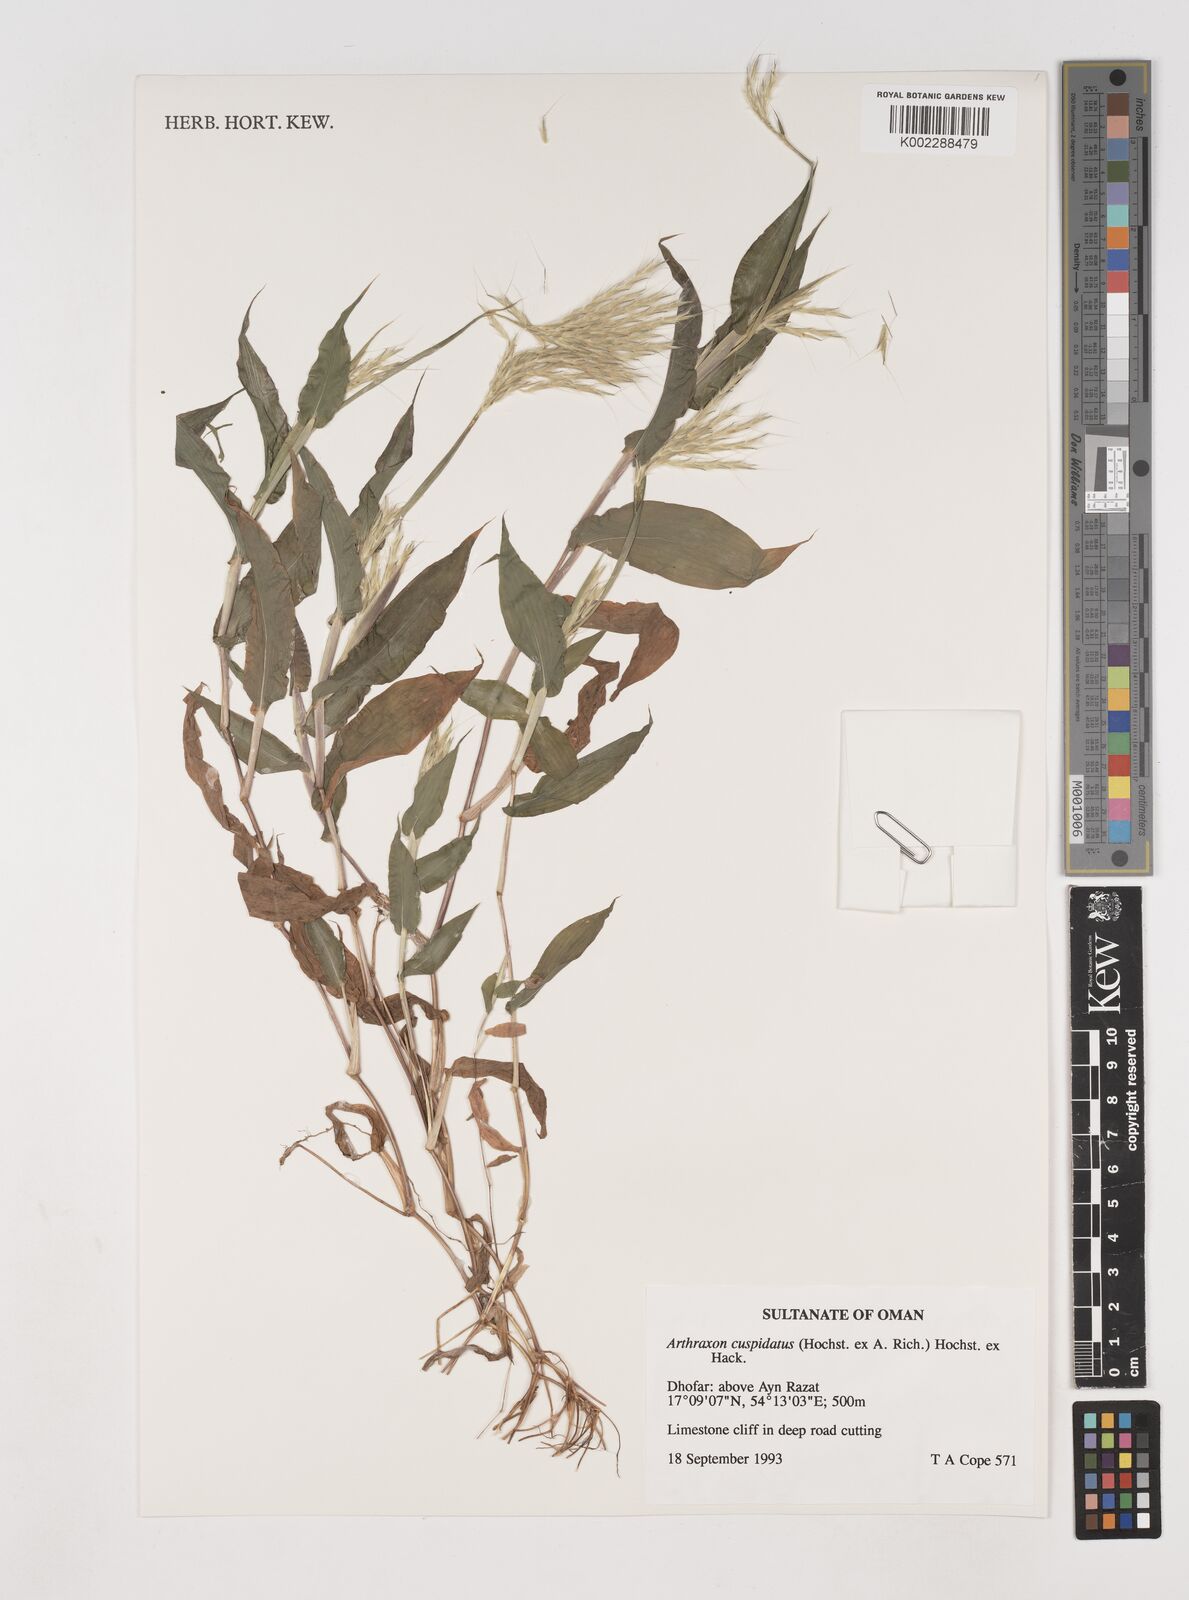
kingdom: Plantae
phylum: Tracheophyta
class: Liliopsida
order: Poales
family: Poaceae
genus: Arthraxon
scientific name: Arthraxon cuspidatus
